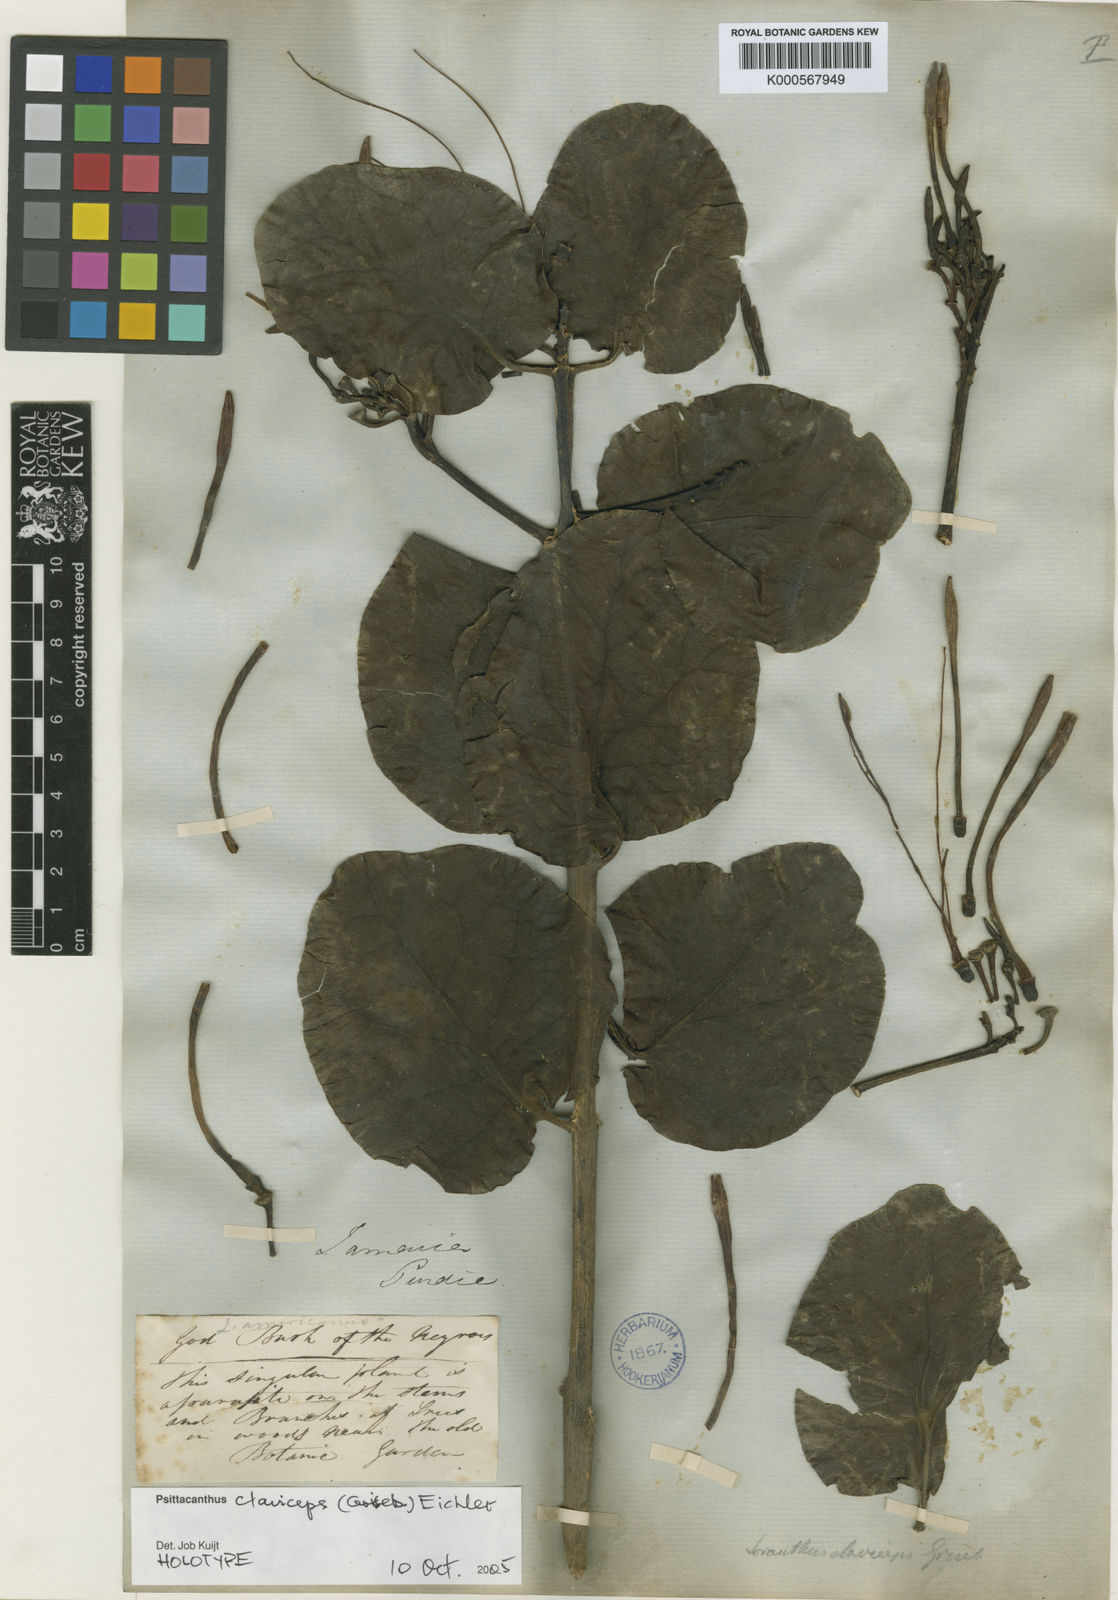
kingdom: Plantae
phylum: Tracheophyta
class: Magnoliopsida
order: Santalales
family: Loranthaceae
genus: Psittacanthus
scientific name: Psittacanthus martinicensis
